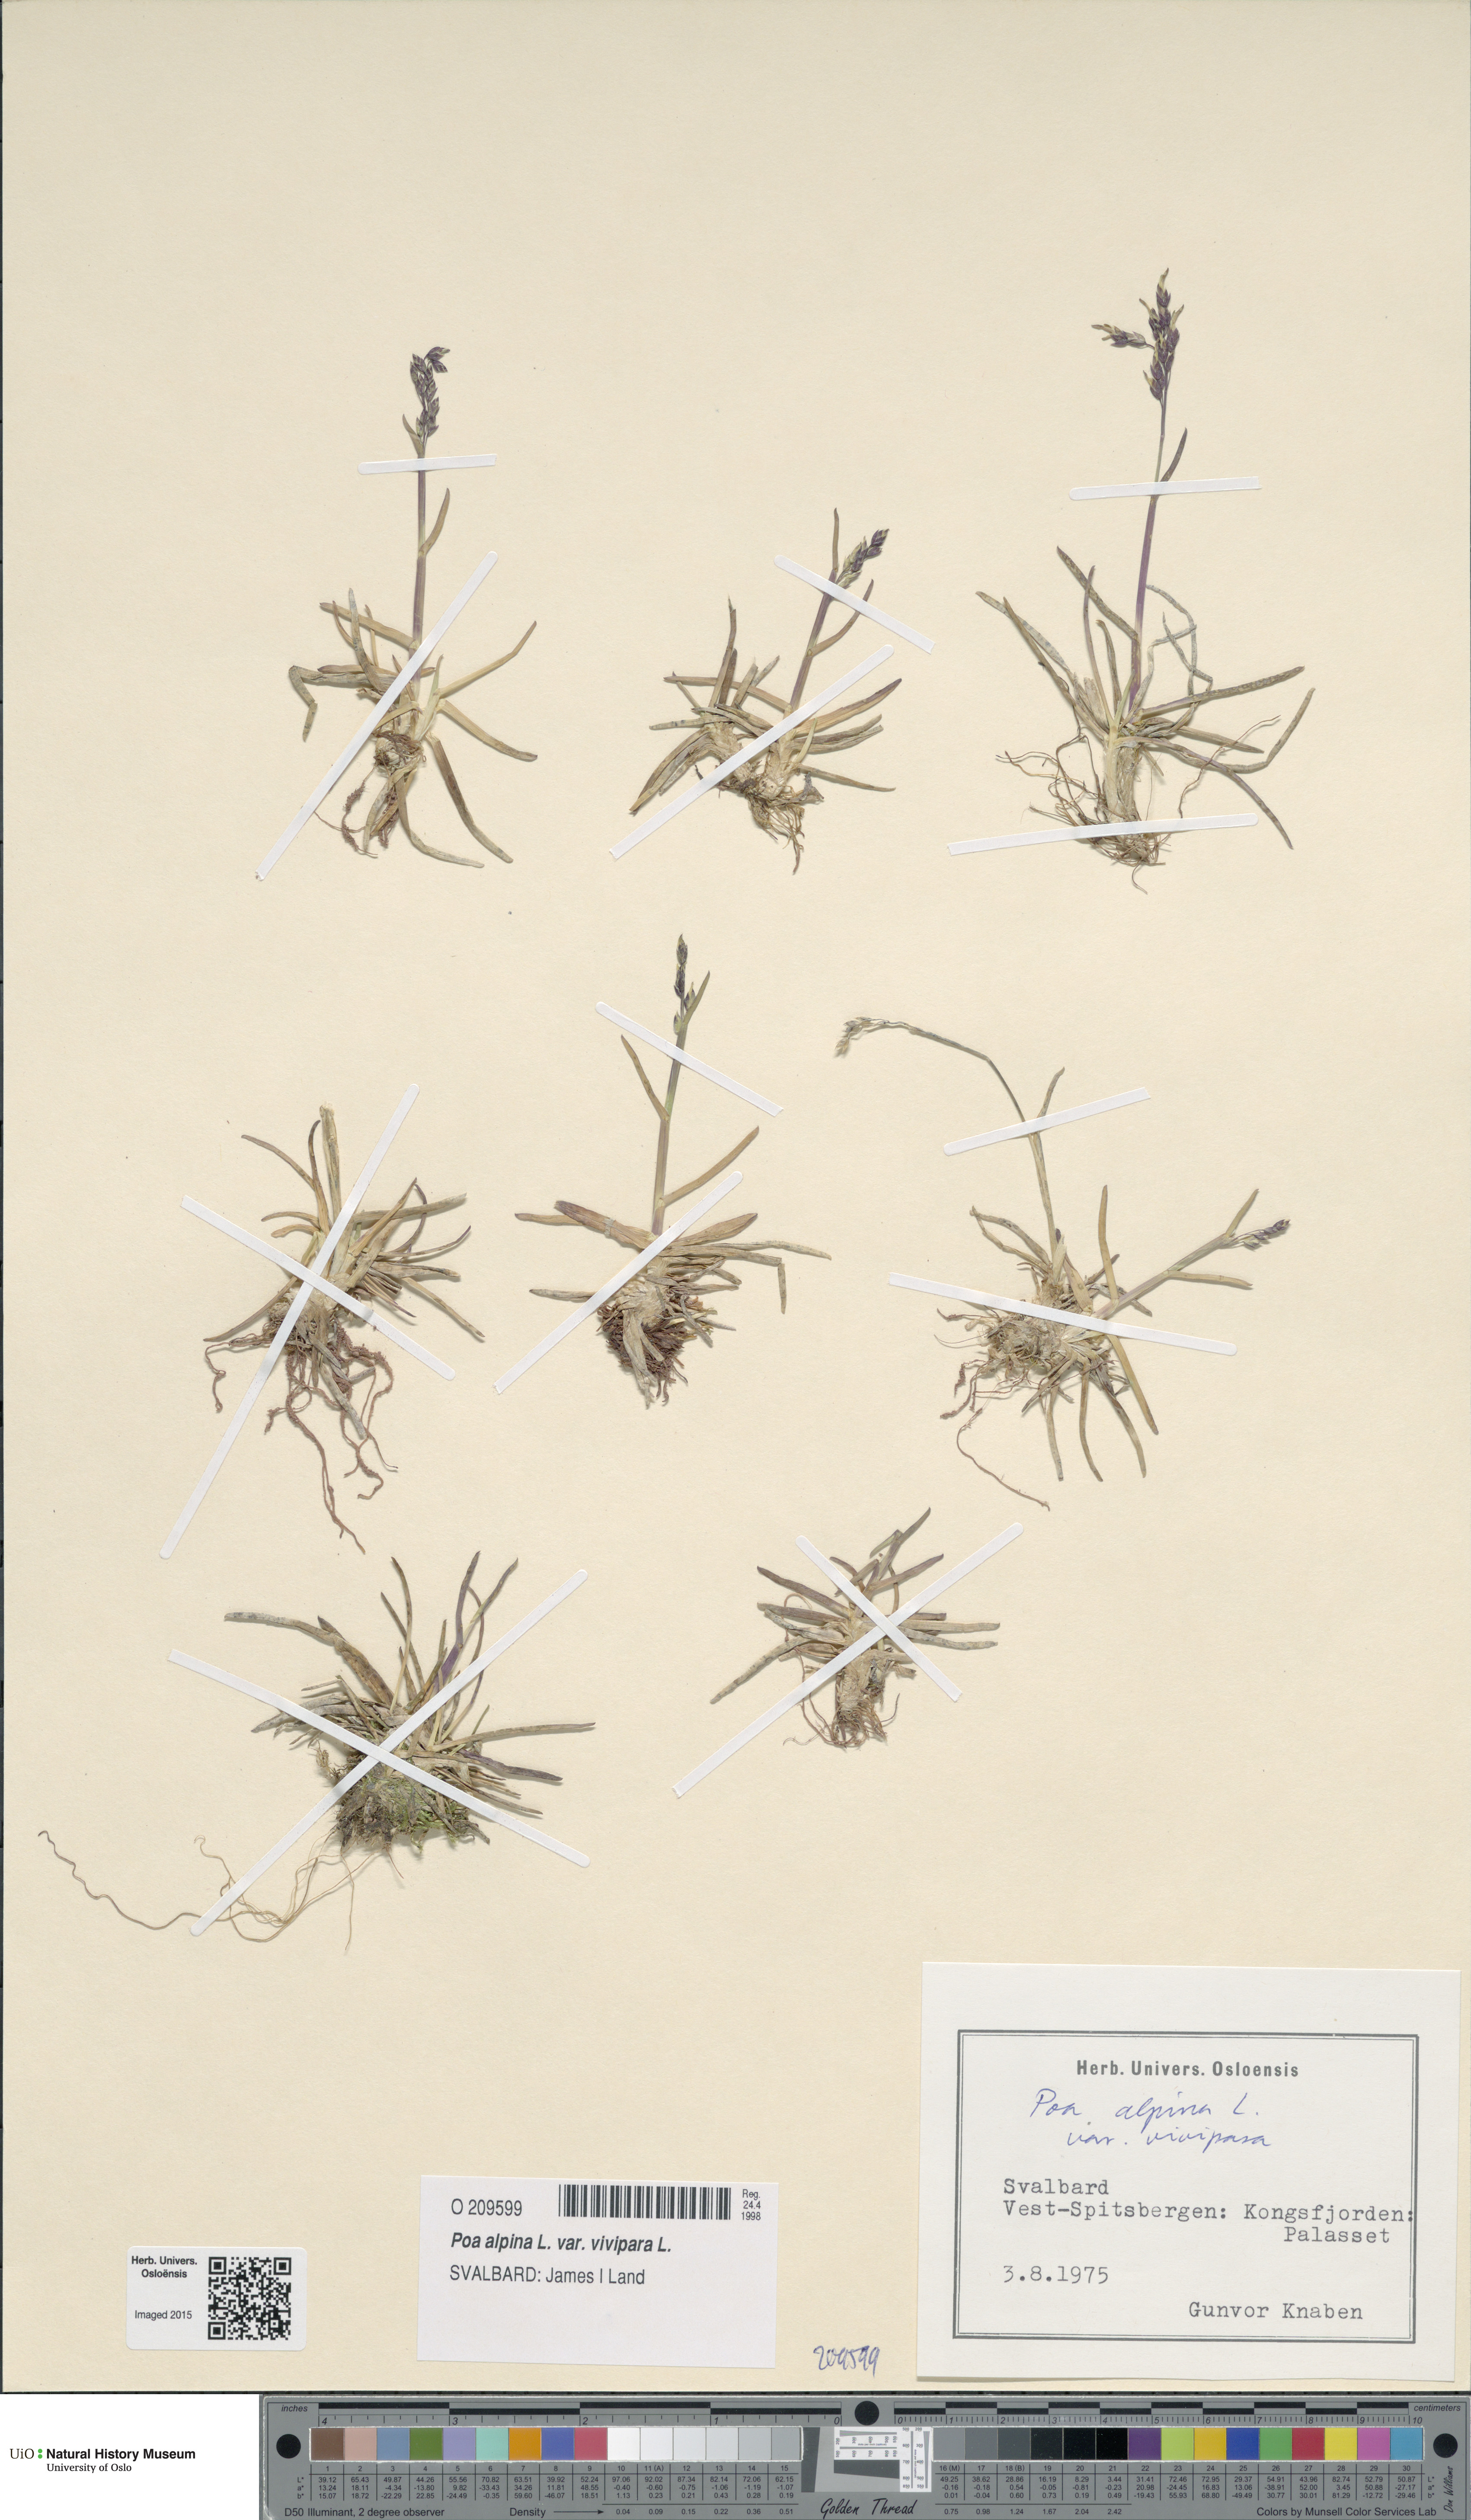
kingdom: Plantae
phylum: Tracheophyta
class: Liliopsida
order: Poales
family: Poaceae
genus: Poa
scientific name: Poa alpina
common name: Alpine bluegrass
